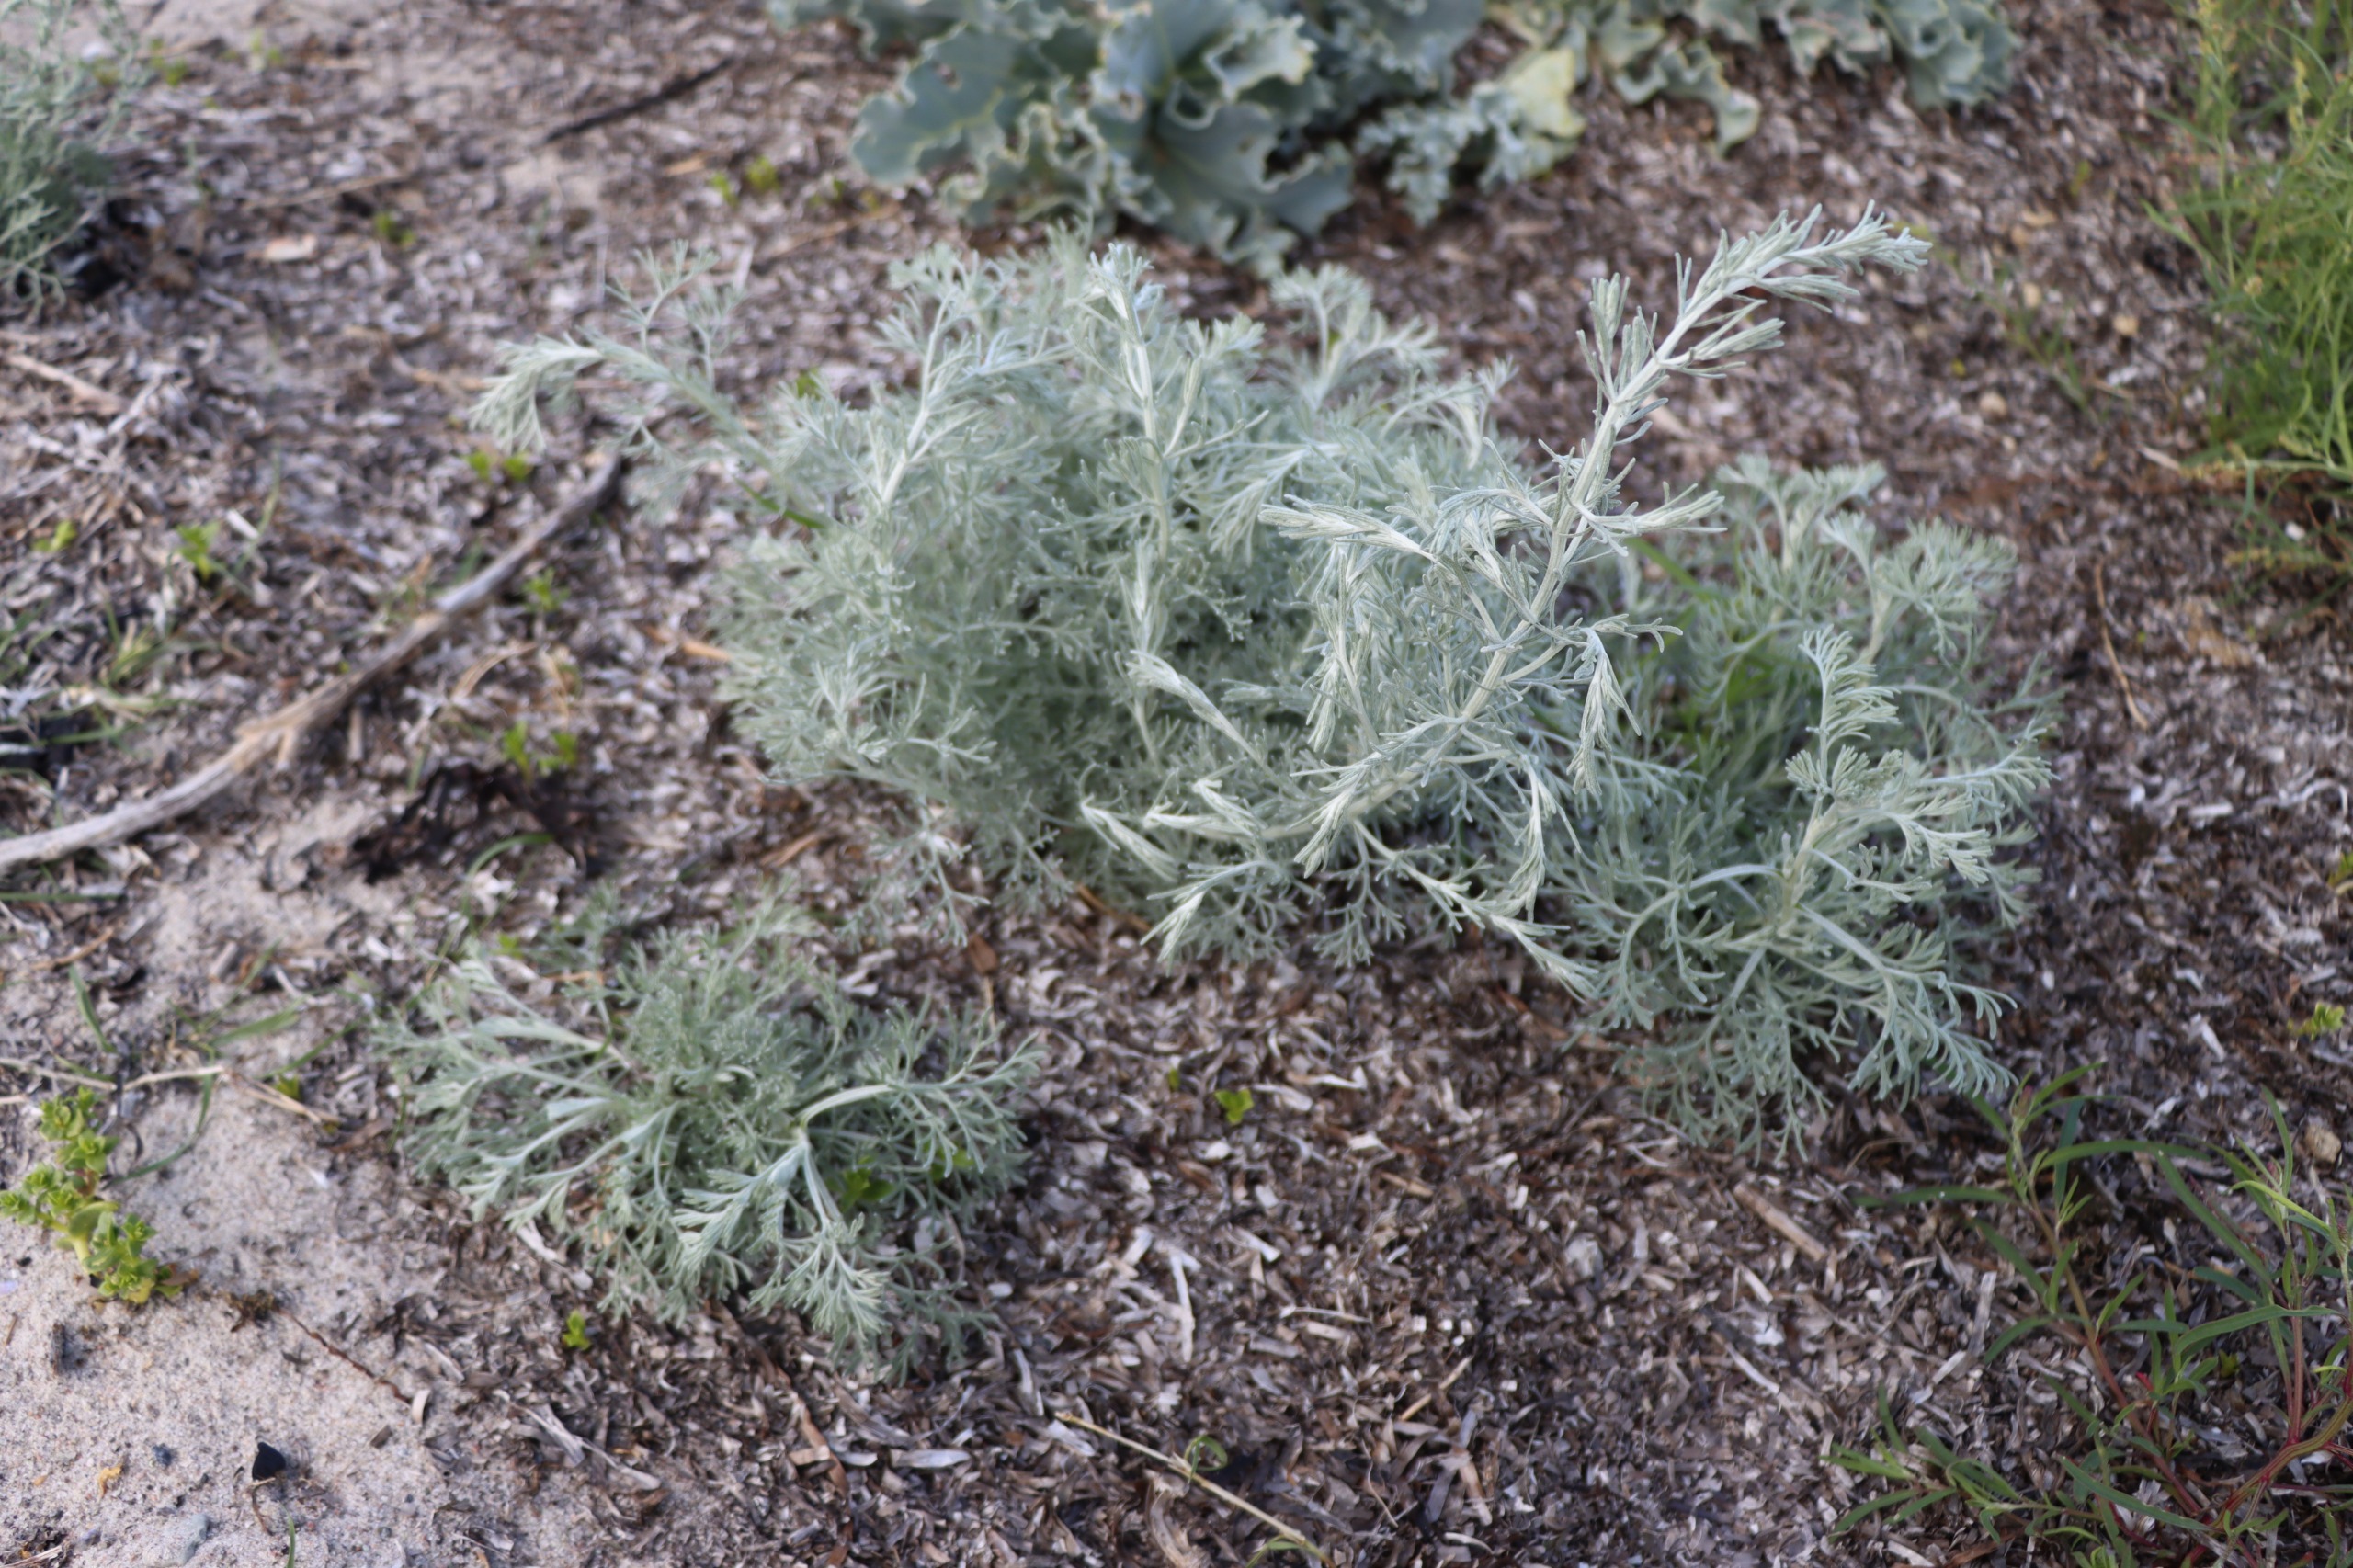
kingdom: Plantae
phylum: Tracheophyta
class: Magnoliopsida
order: Asterales
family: Asteraceae
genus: Artemisia
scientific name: Artemisia maritima
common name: Strandmalurt
